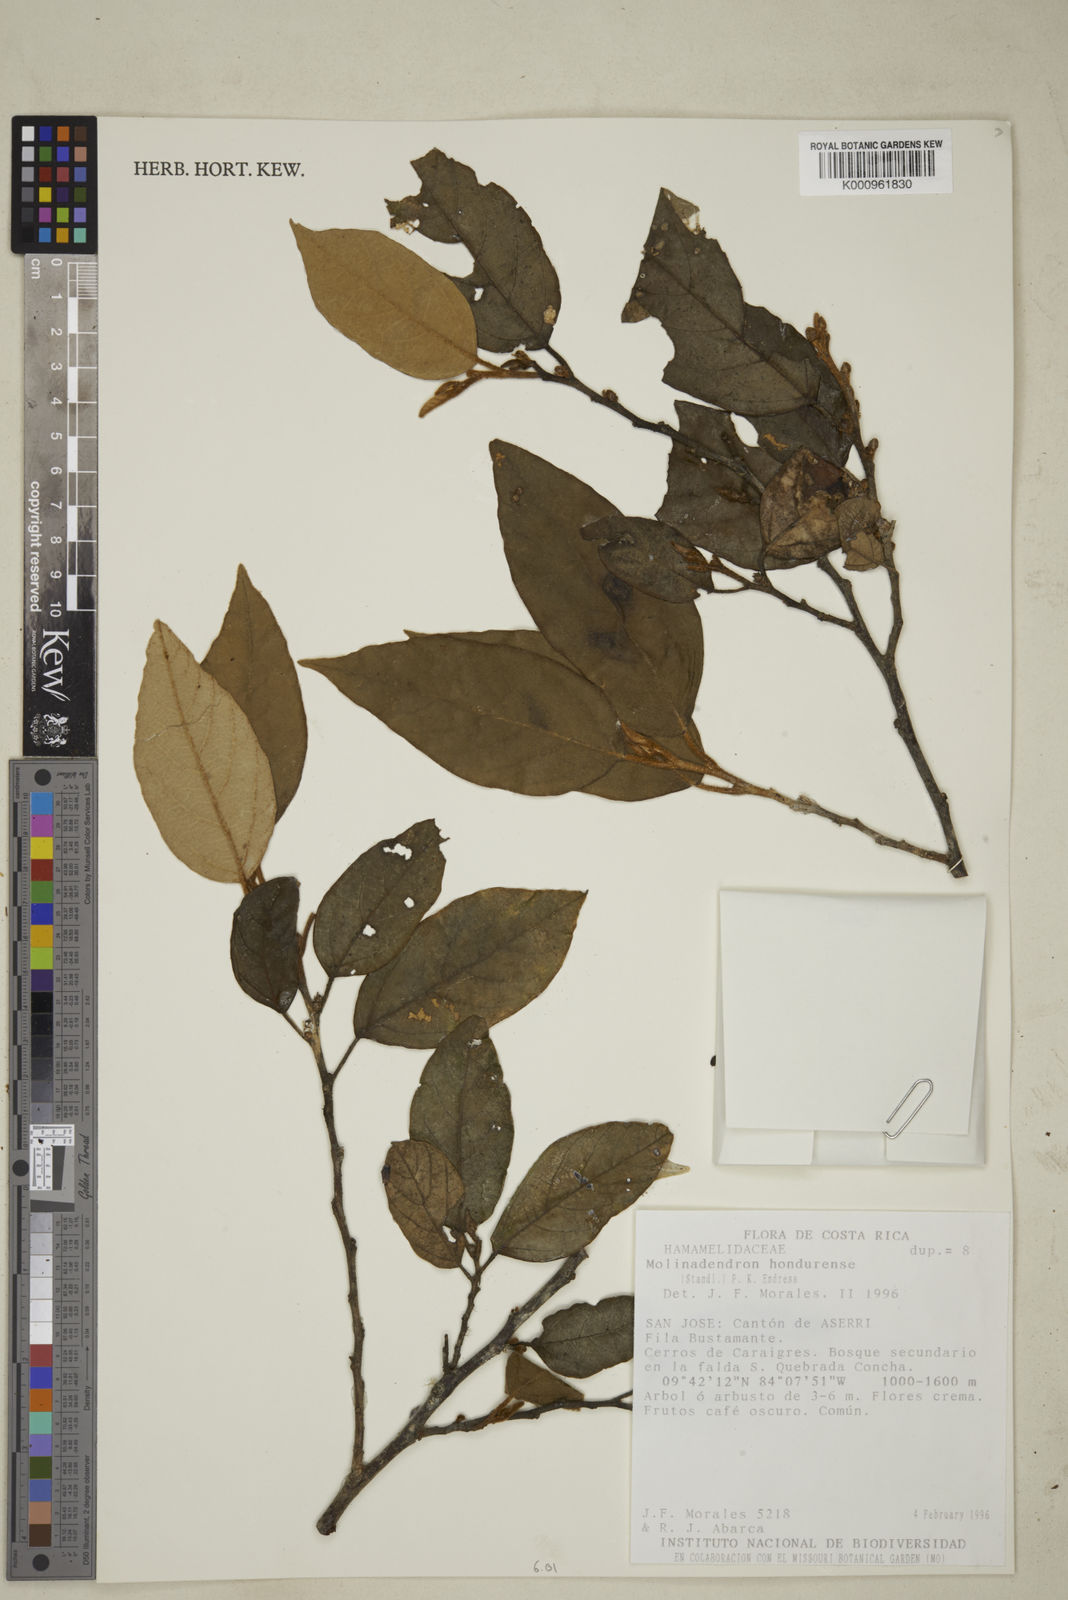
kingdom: Plantae
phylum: Tracheophyta
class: Magnoliopsida
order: Saxifragales
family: Hamamelidaceae
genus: Molinadendron
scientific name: Molinadendron guatemalense
